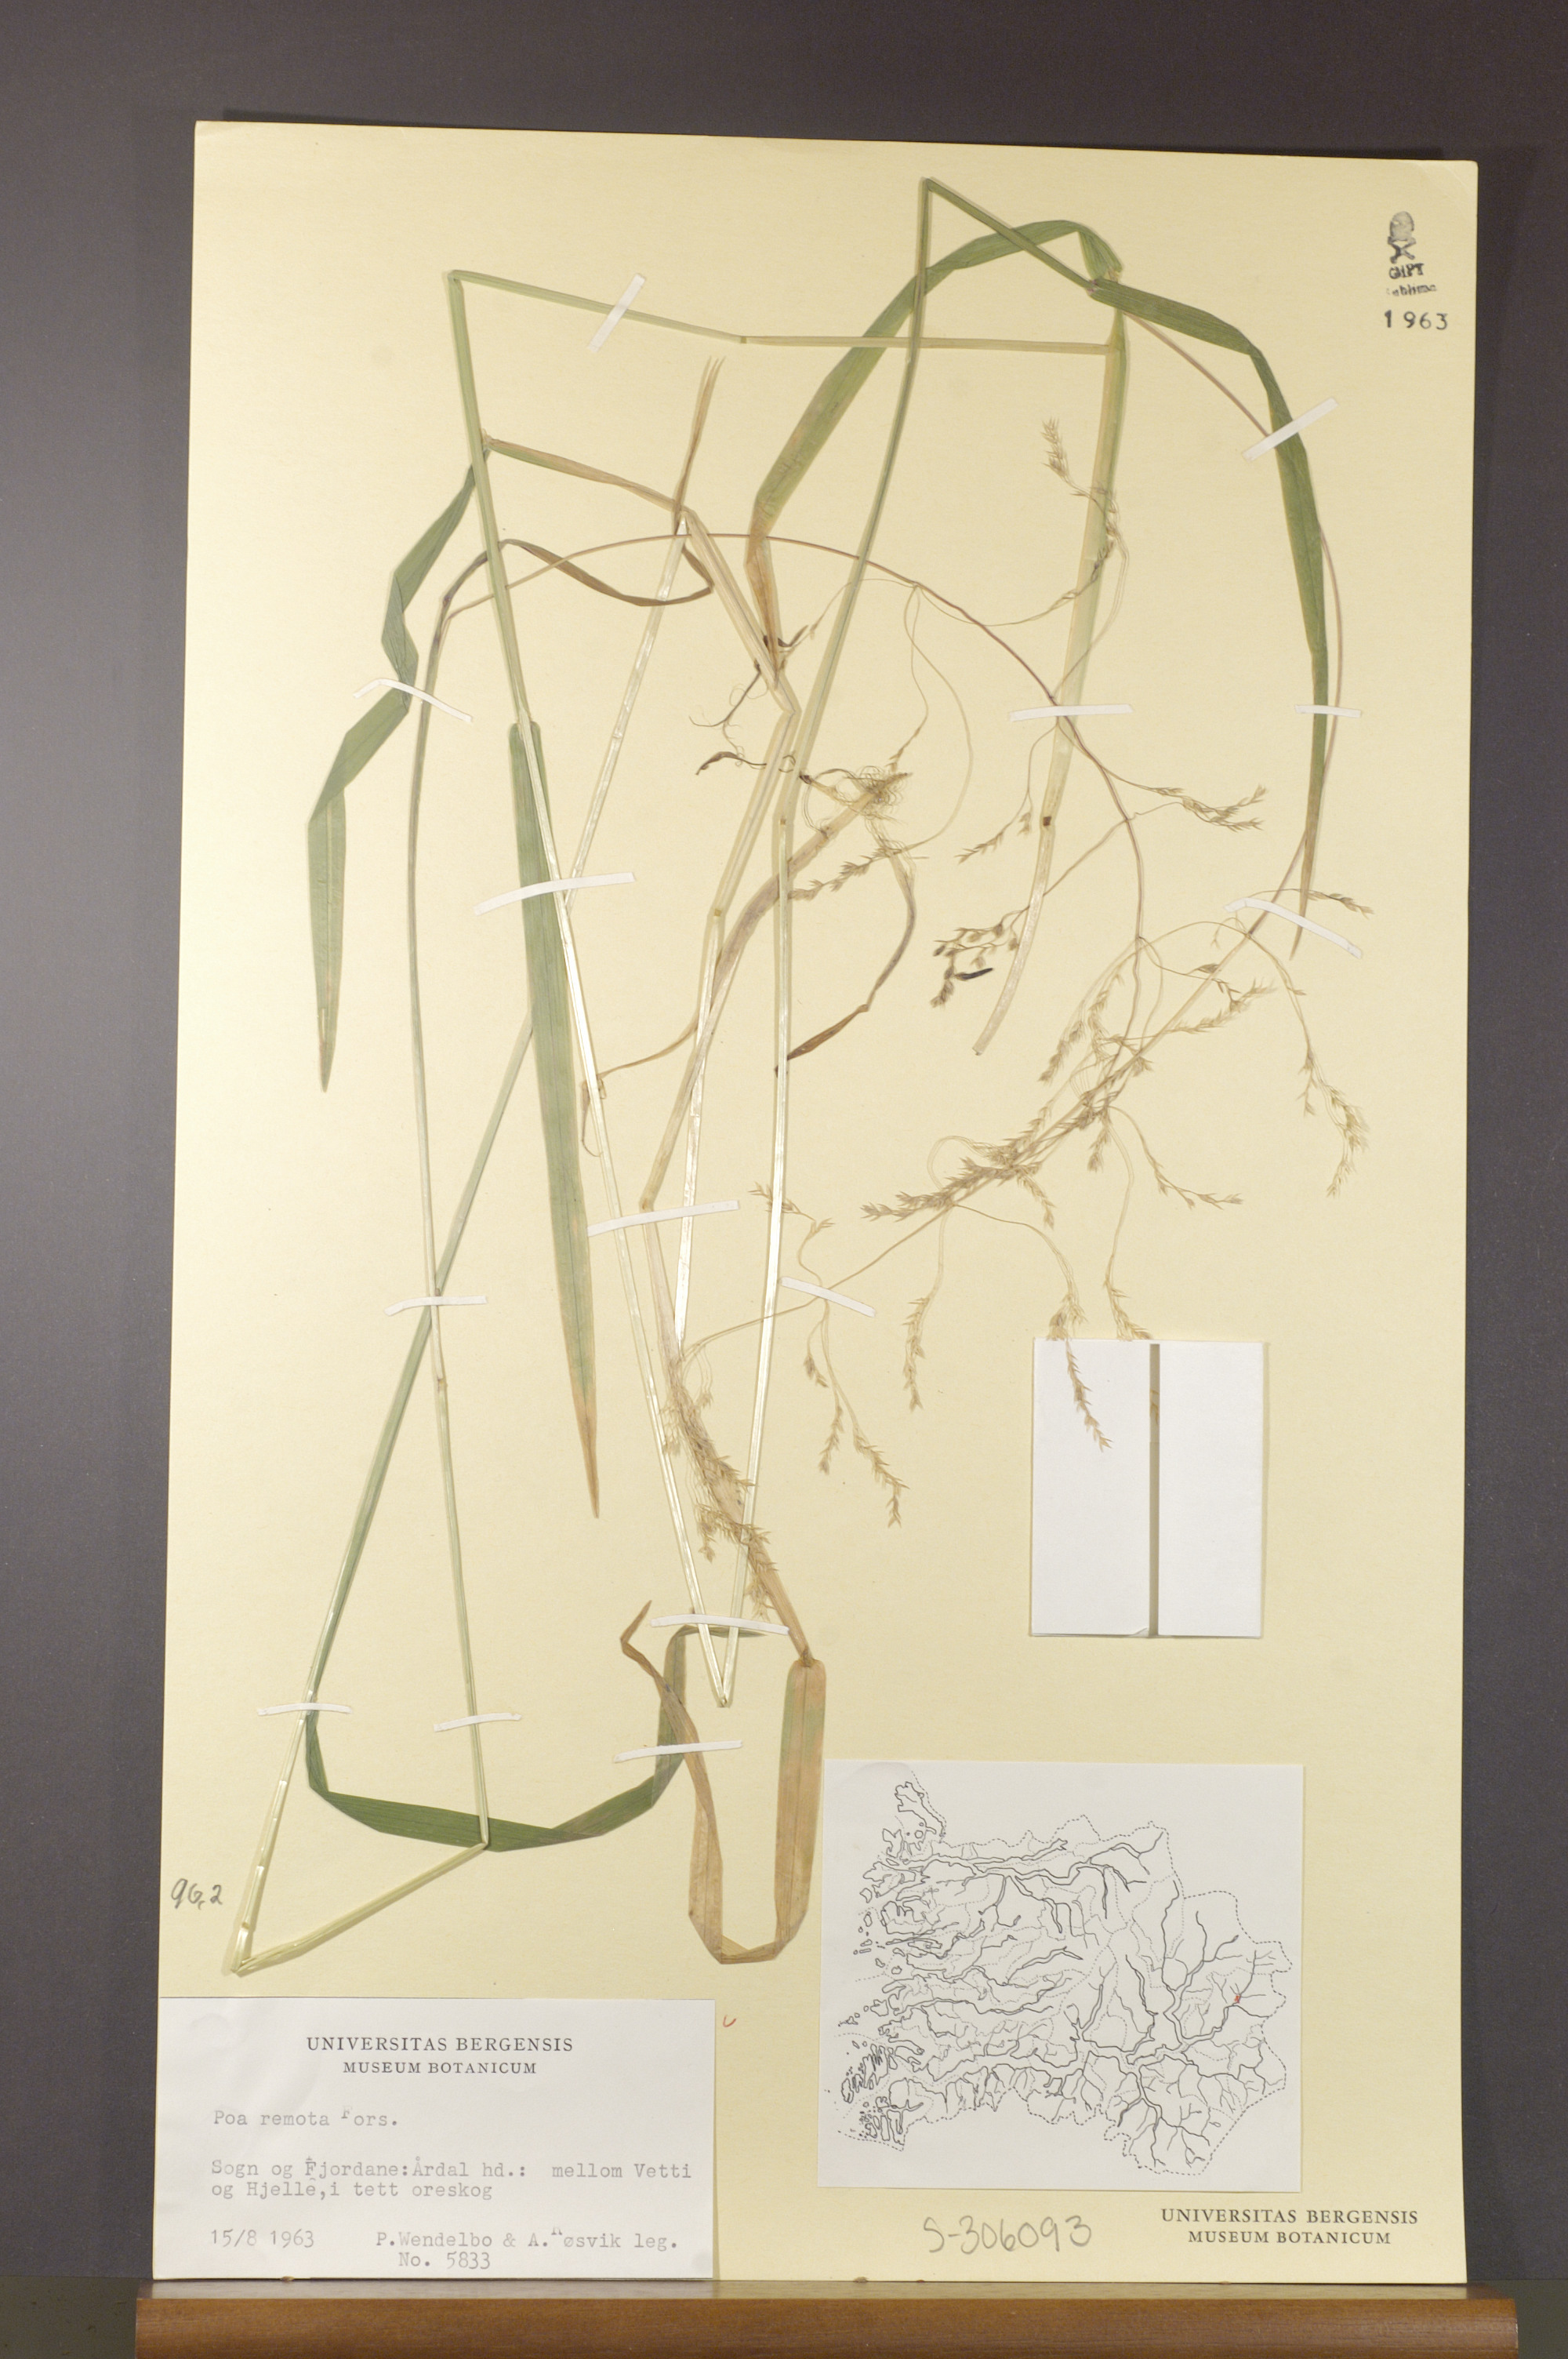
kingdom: Plantae
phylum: Tracheophyta
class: Liliopsida
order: Poales
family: Poaceae
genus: Poa
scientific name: Poa remota
